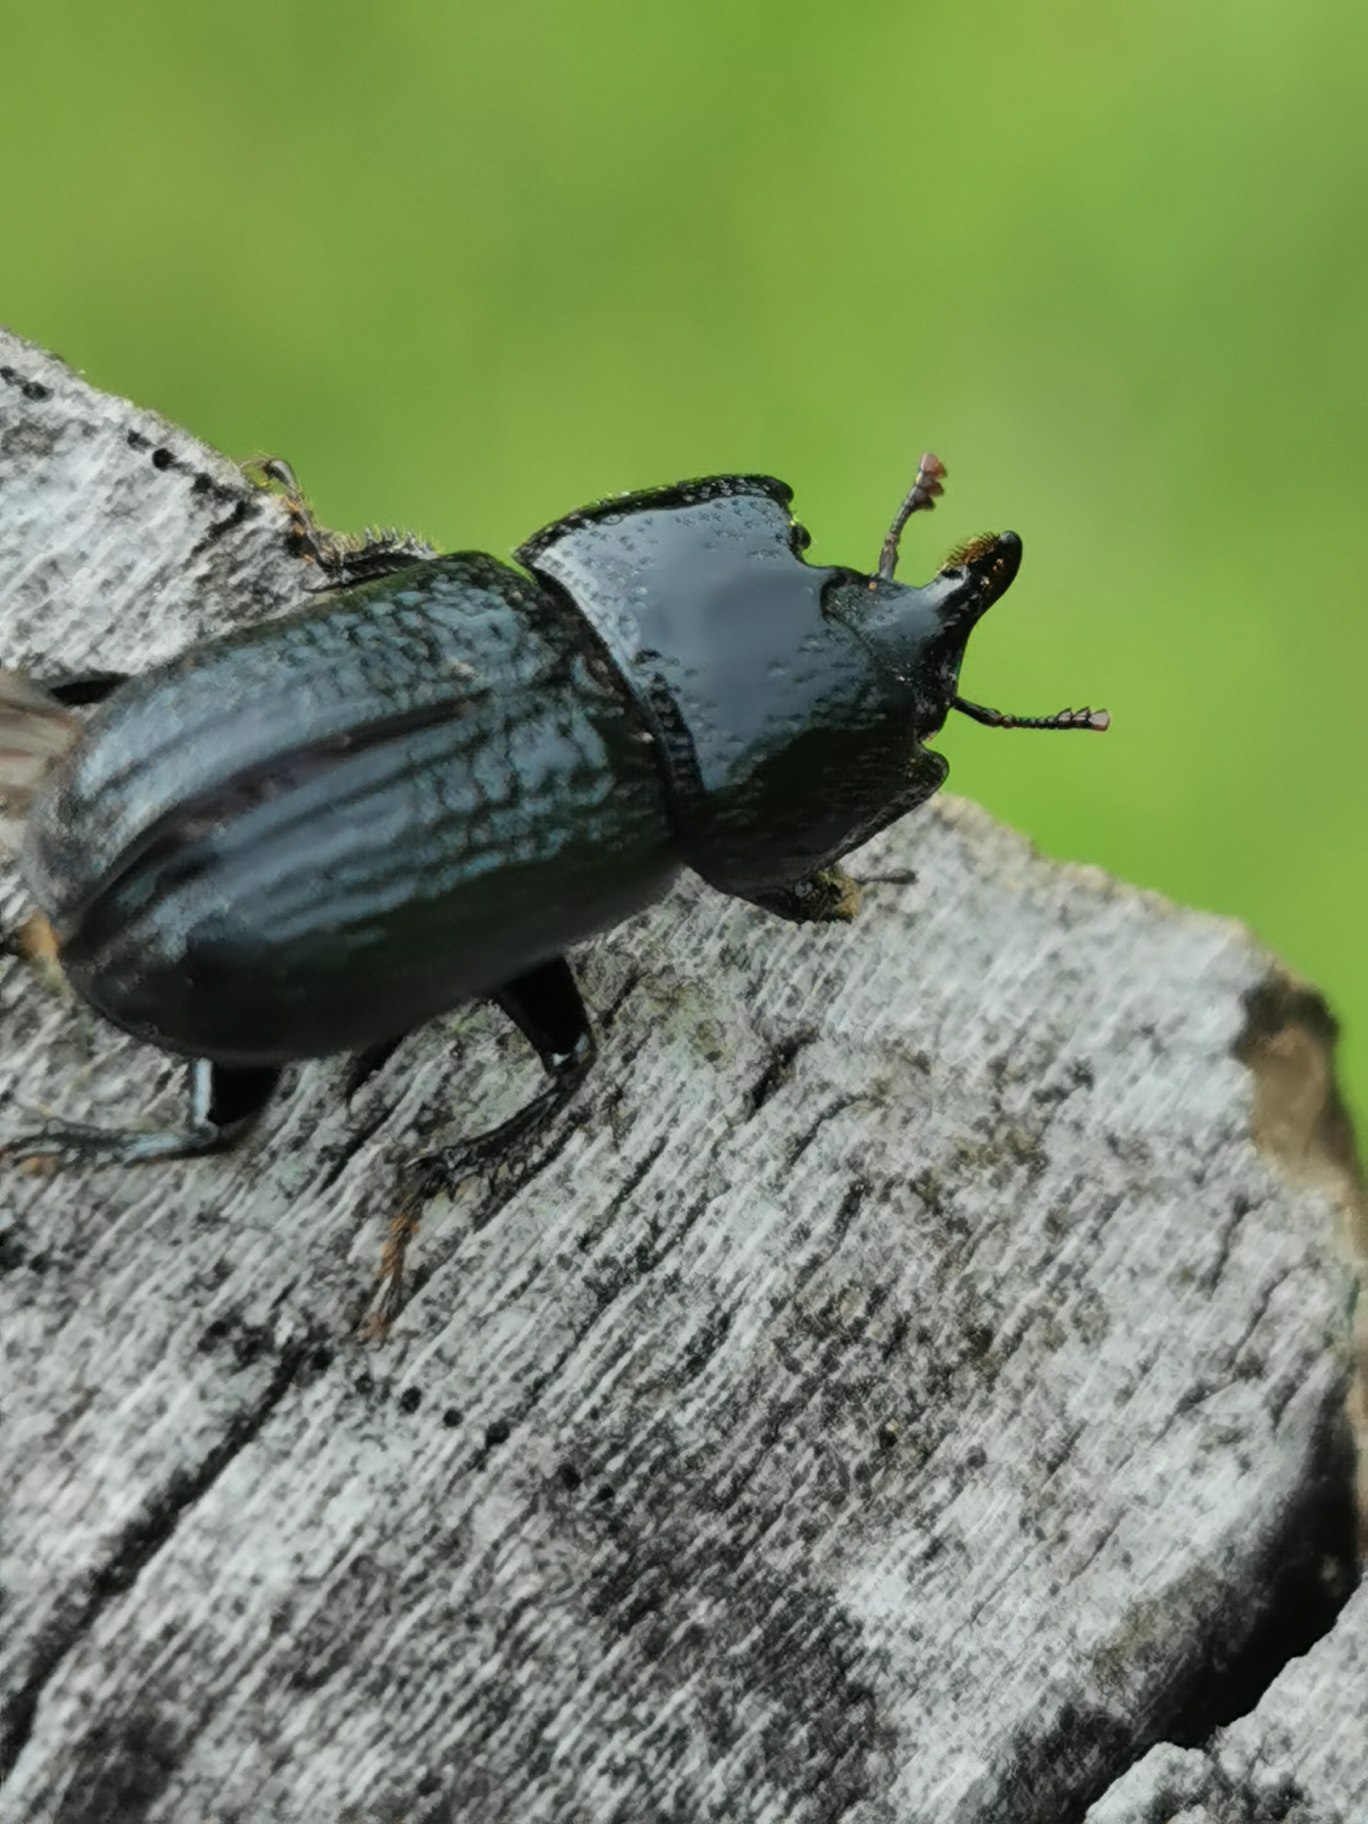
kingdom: Animalia
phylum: Arthropoda
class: Insecta
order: Coleoptera
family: Lucanidae
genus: Sinodendron
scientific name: Sinodendron cylindricum
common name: Valsehjort
